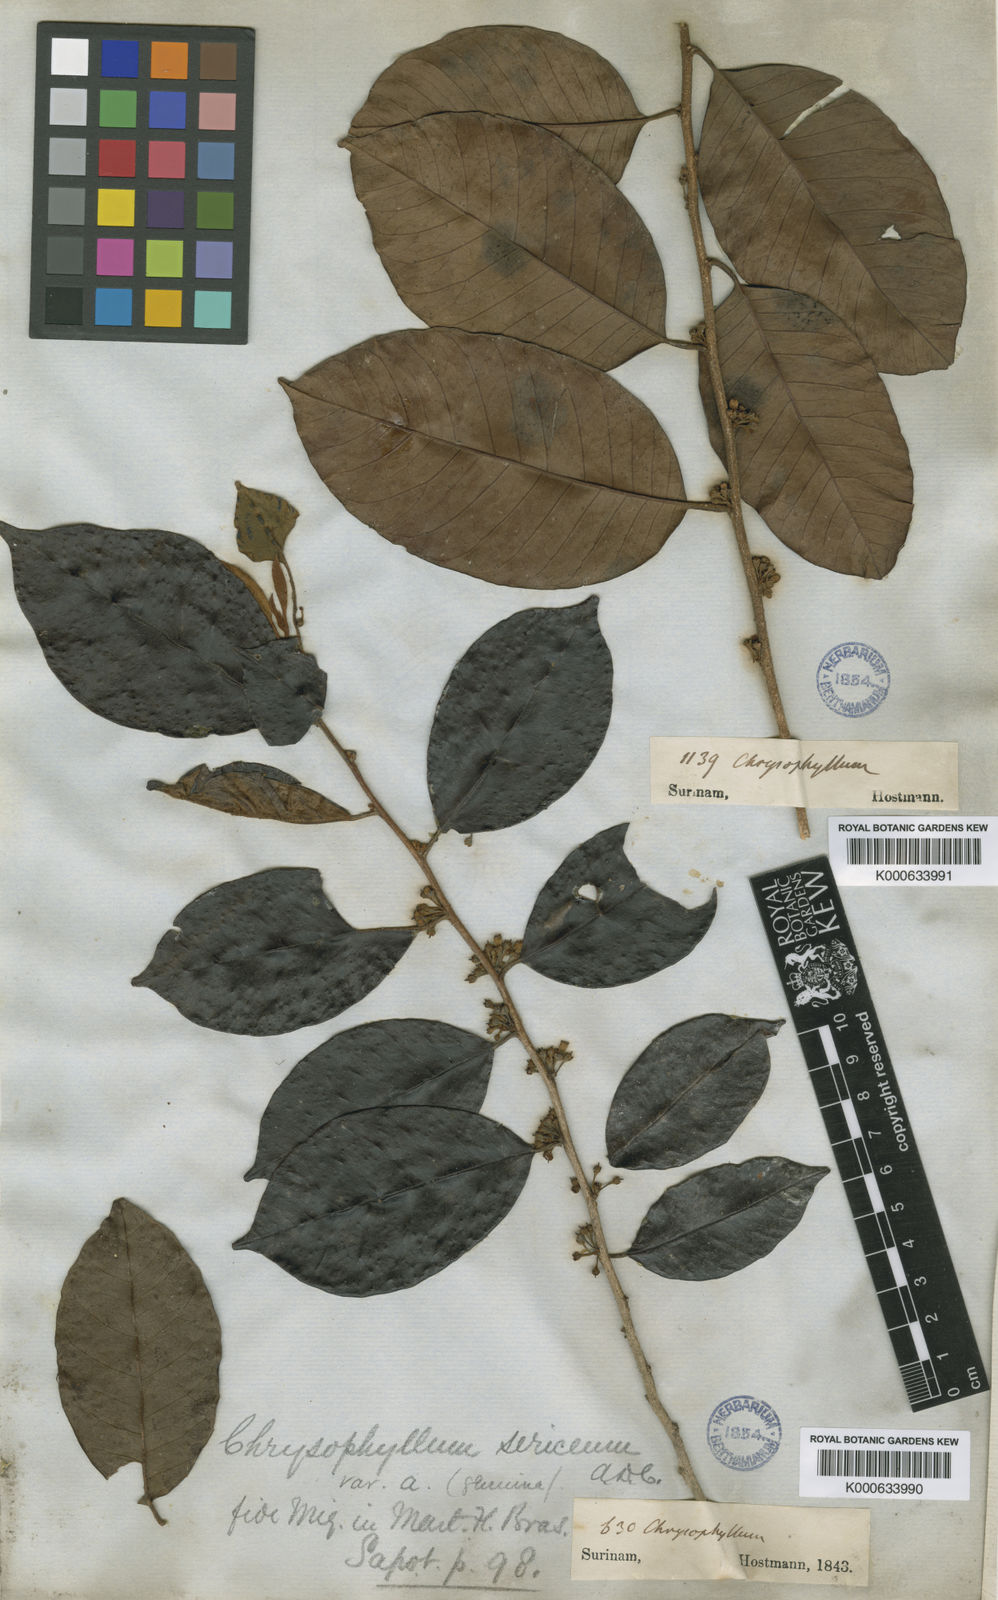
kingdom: Plantae
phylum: Tracheophyta
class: Magnoliopsida
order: Ericales
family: Sapotaceae
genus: Chrysophyllum
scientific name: Chrysophyllum argenteum
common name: Smooth star apple
